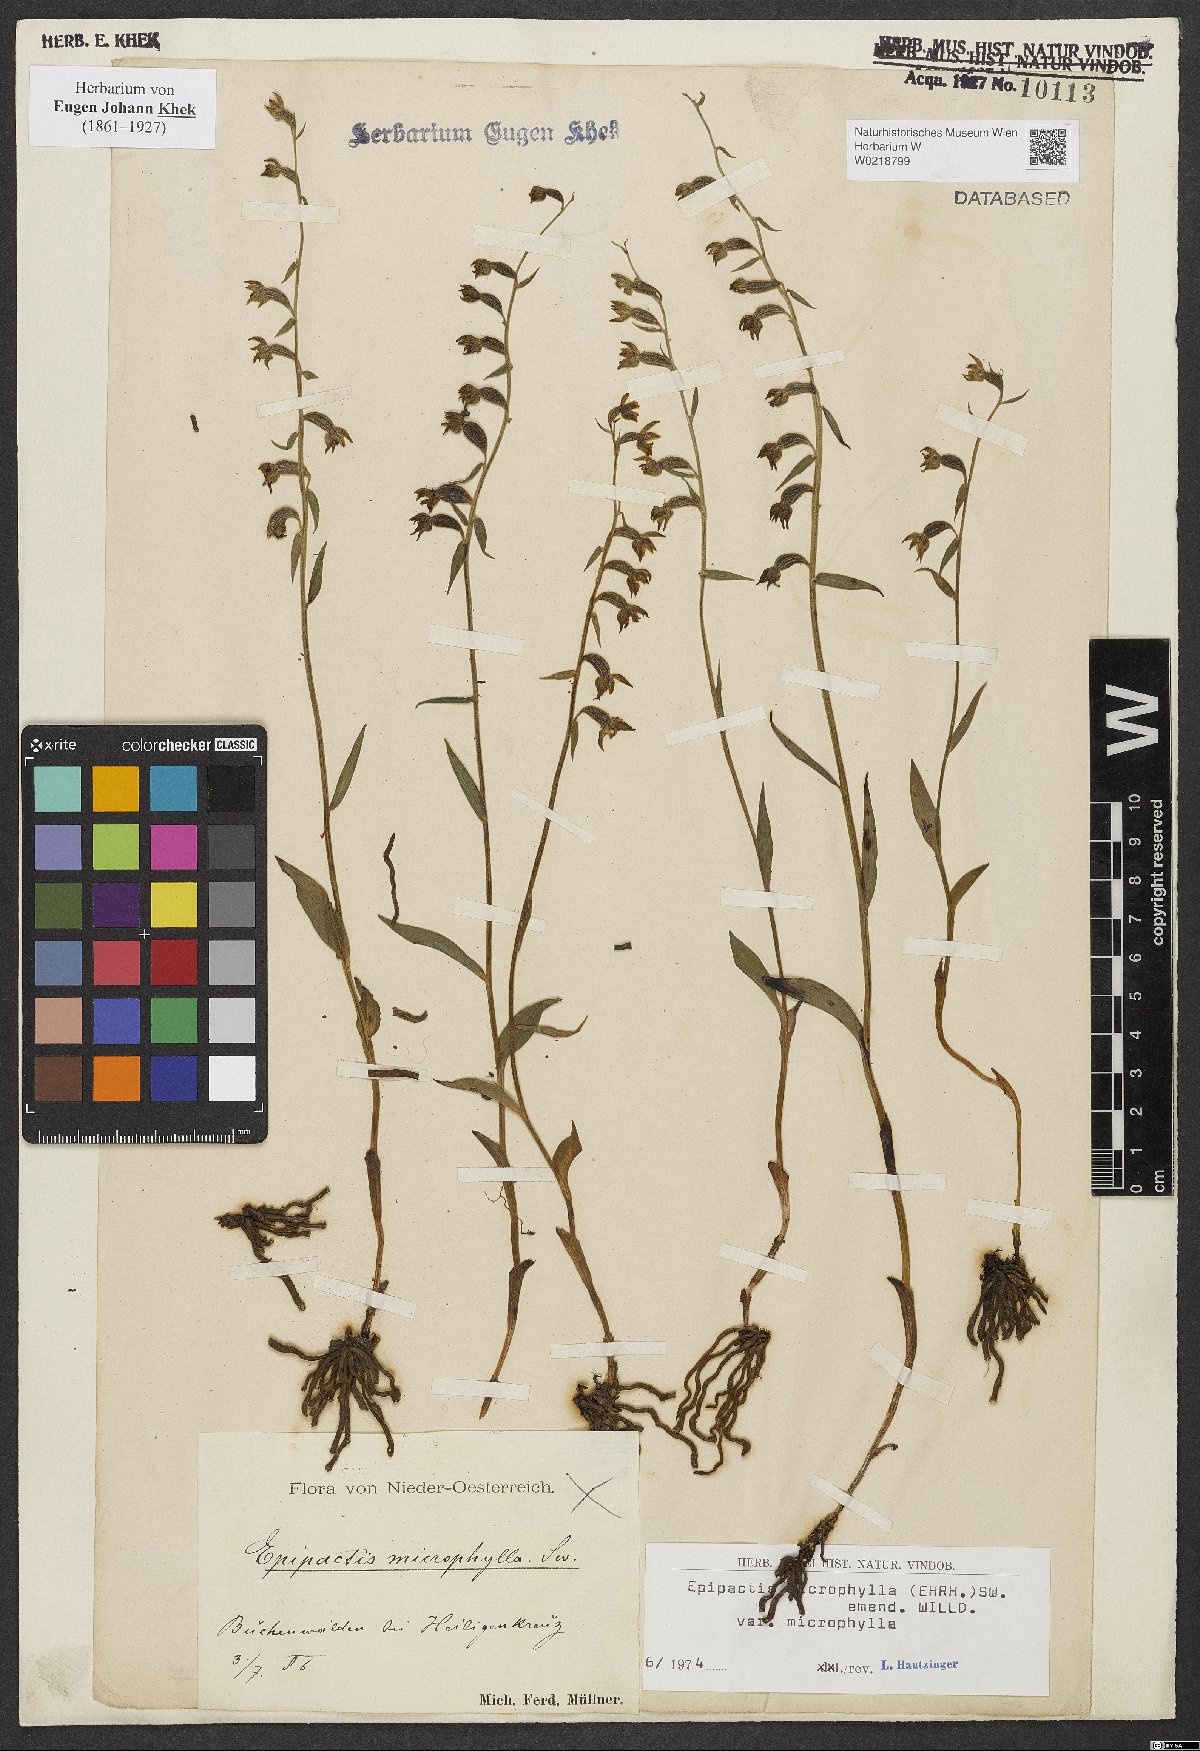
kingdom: Plantae
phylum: Tracheophyta
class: Liliopsida
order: Asparagales
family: Orchidaceae
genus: Epipactis
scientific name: Epipactis microphylla
